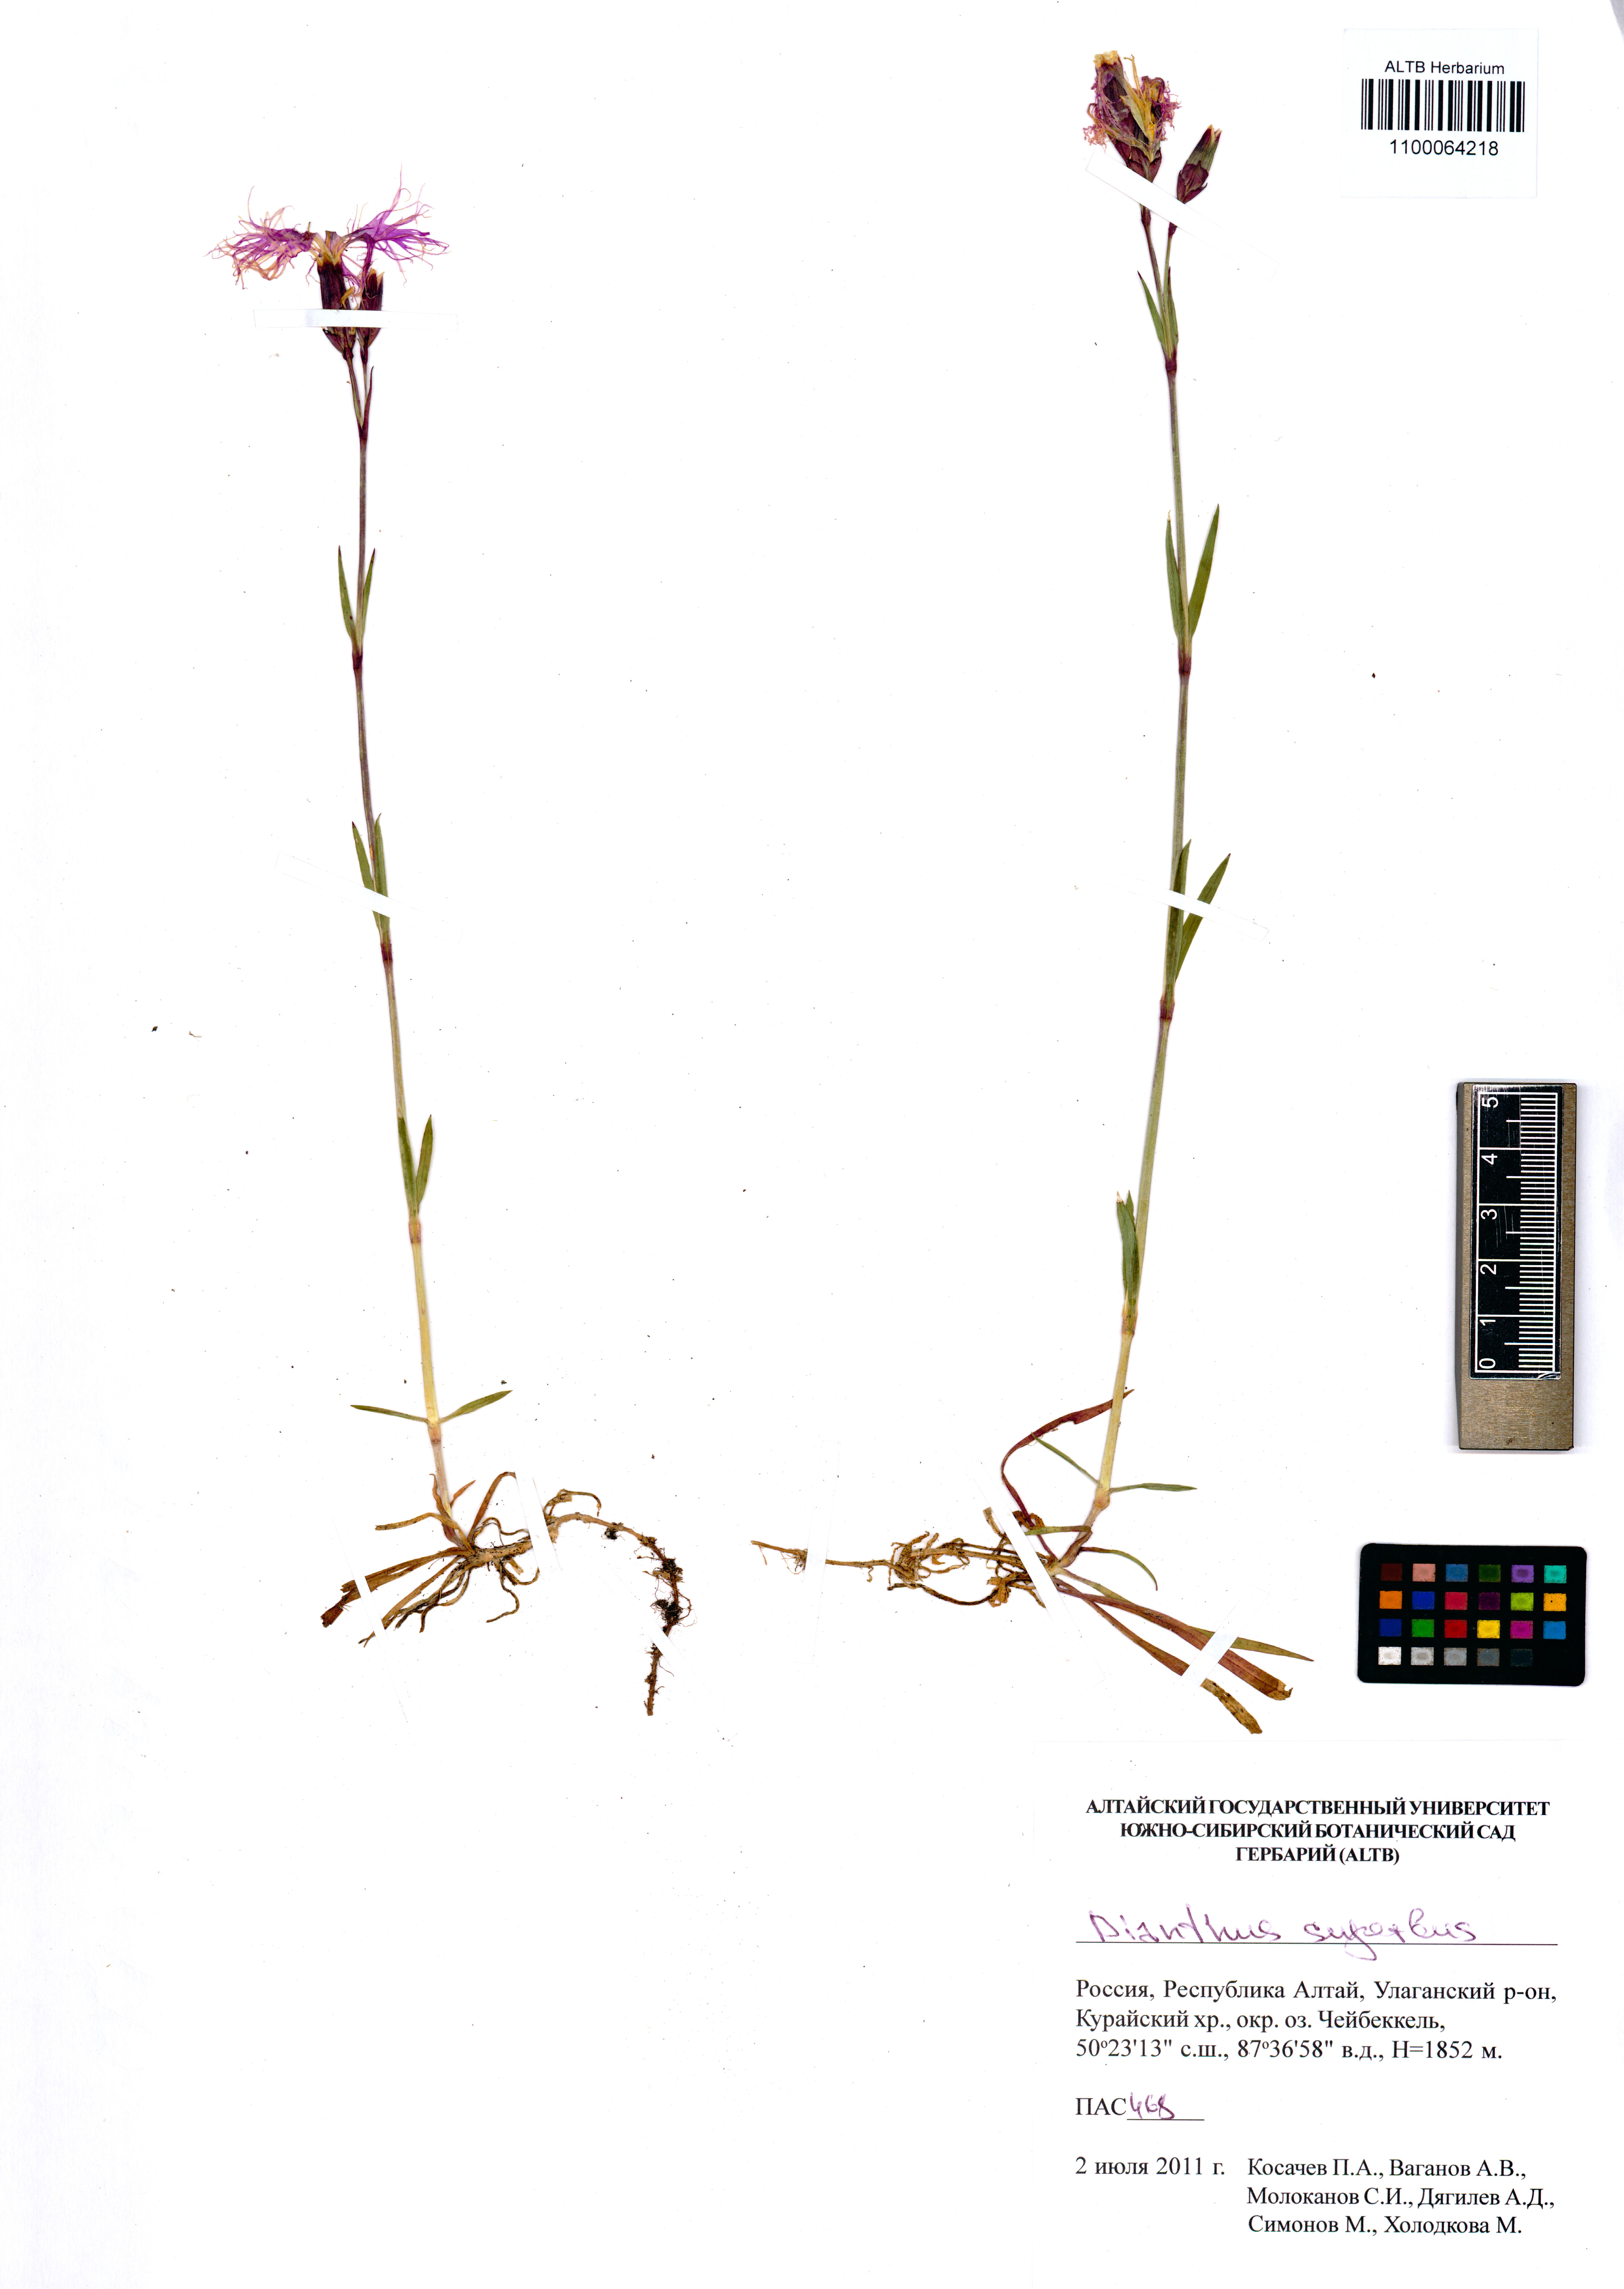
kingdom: Plantae
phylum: Tracheophyta
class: Magnoliopsida
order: Caryophyllales
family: Caryophyllaceae
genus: Dianthus
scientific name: Dianthus superbus
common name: Fringed pink
